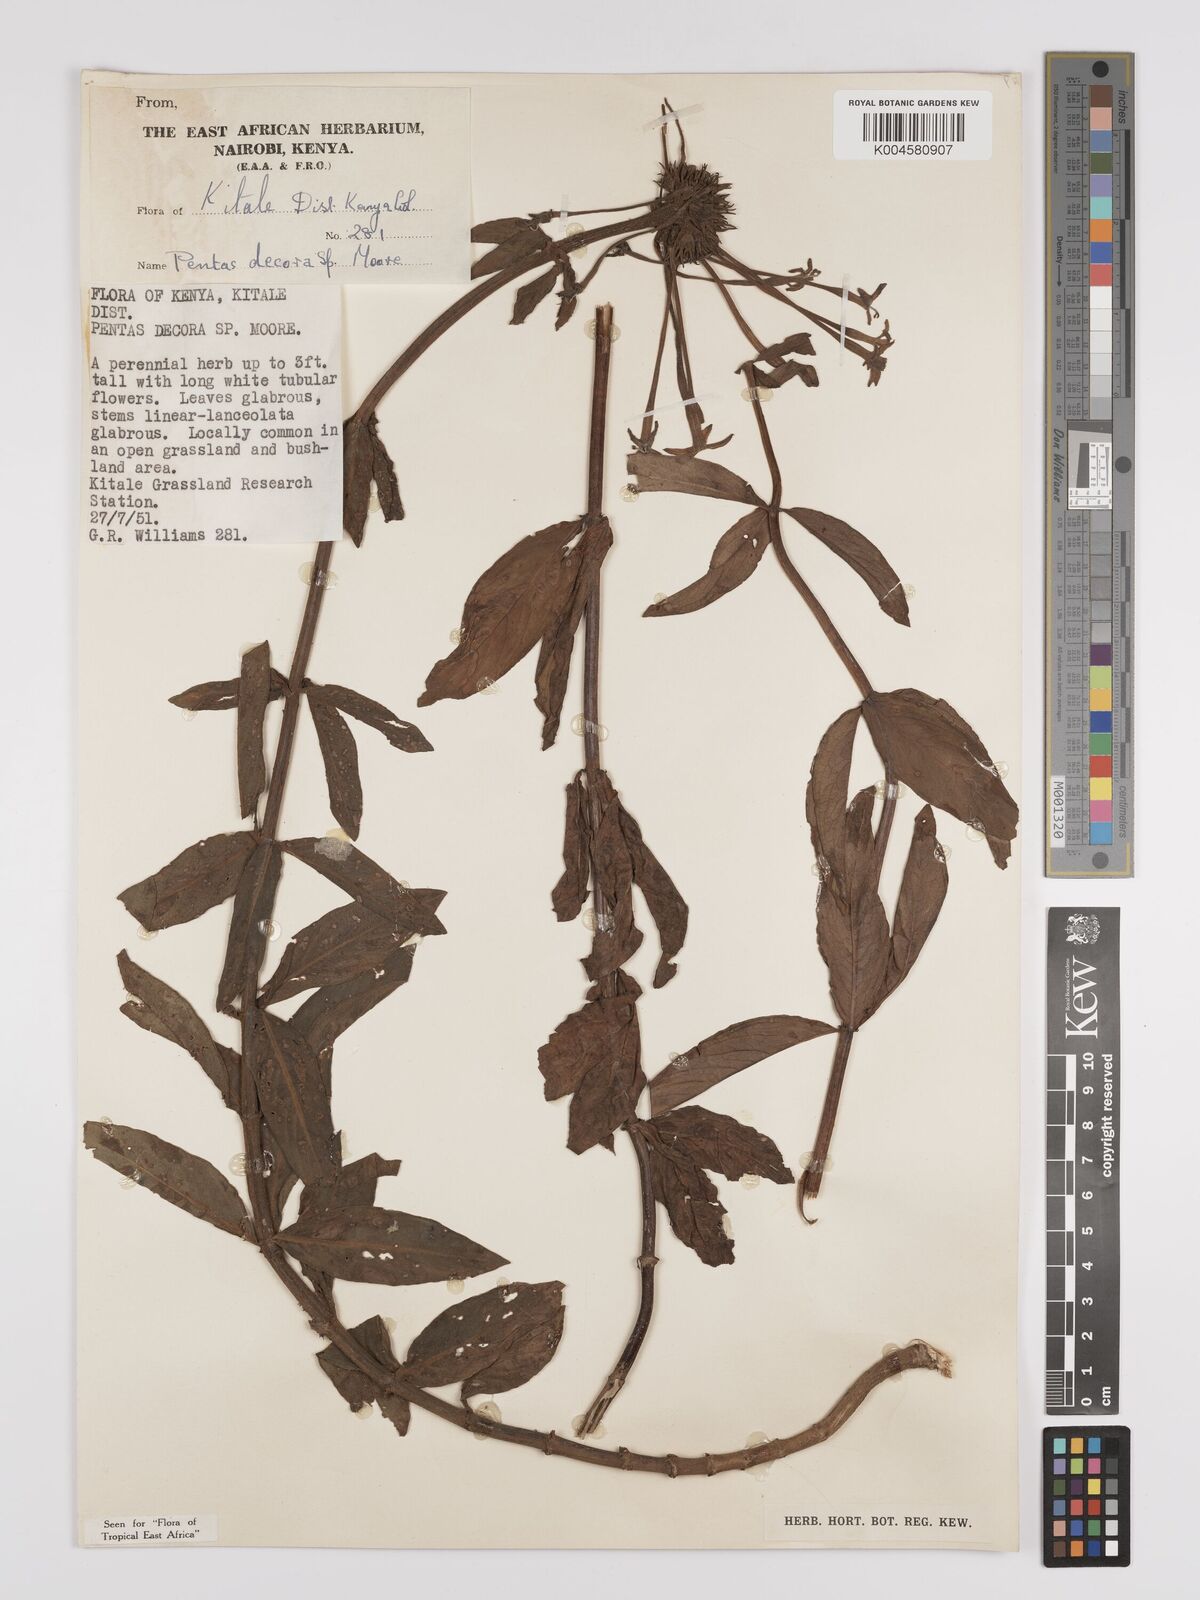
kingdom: Plantae
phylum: Tracheophyta
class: Magnoliopsida
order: Gentianales
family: Rubiaceae
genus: Dolichopentas
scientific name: Dolichopentas decora
